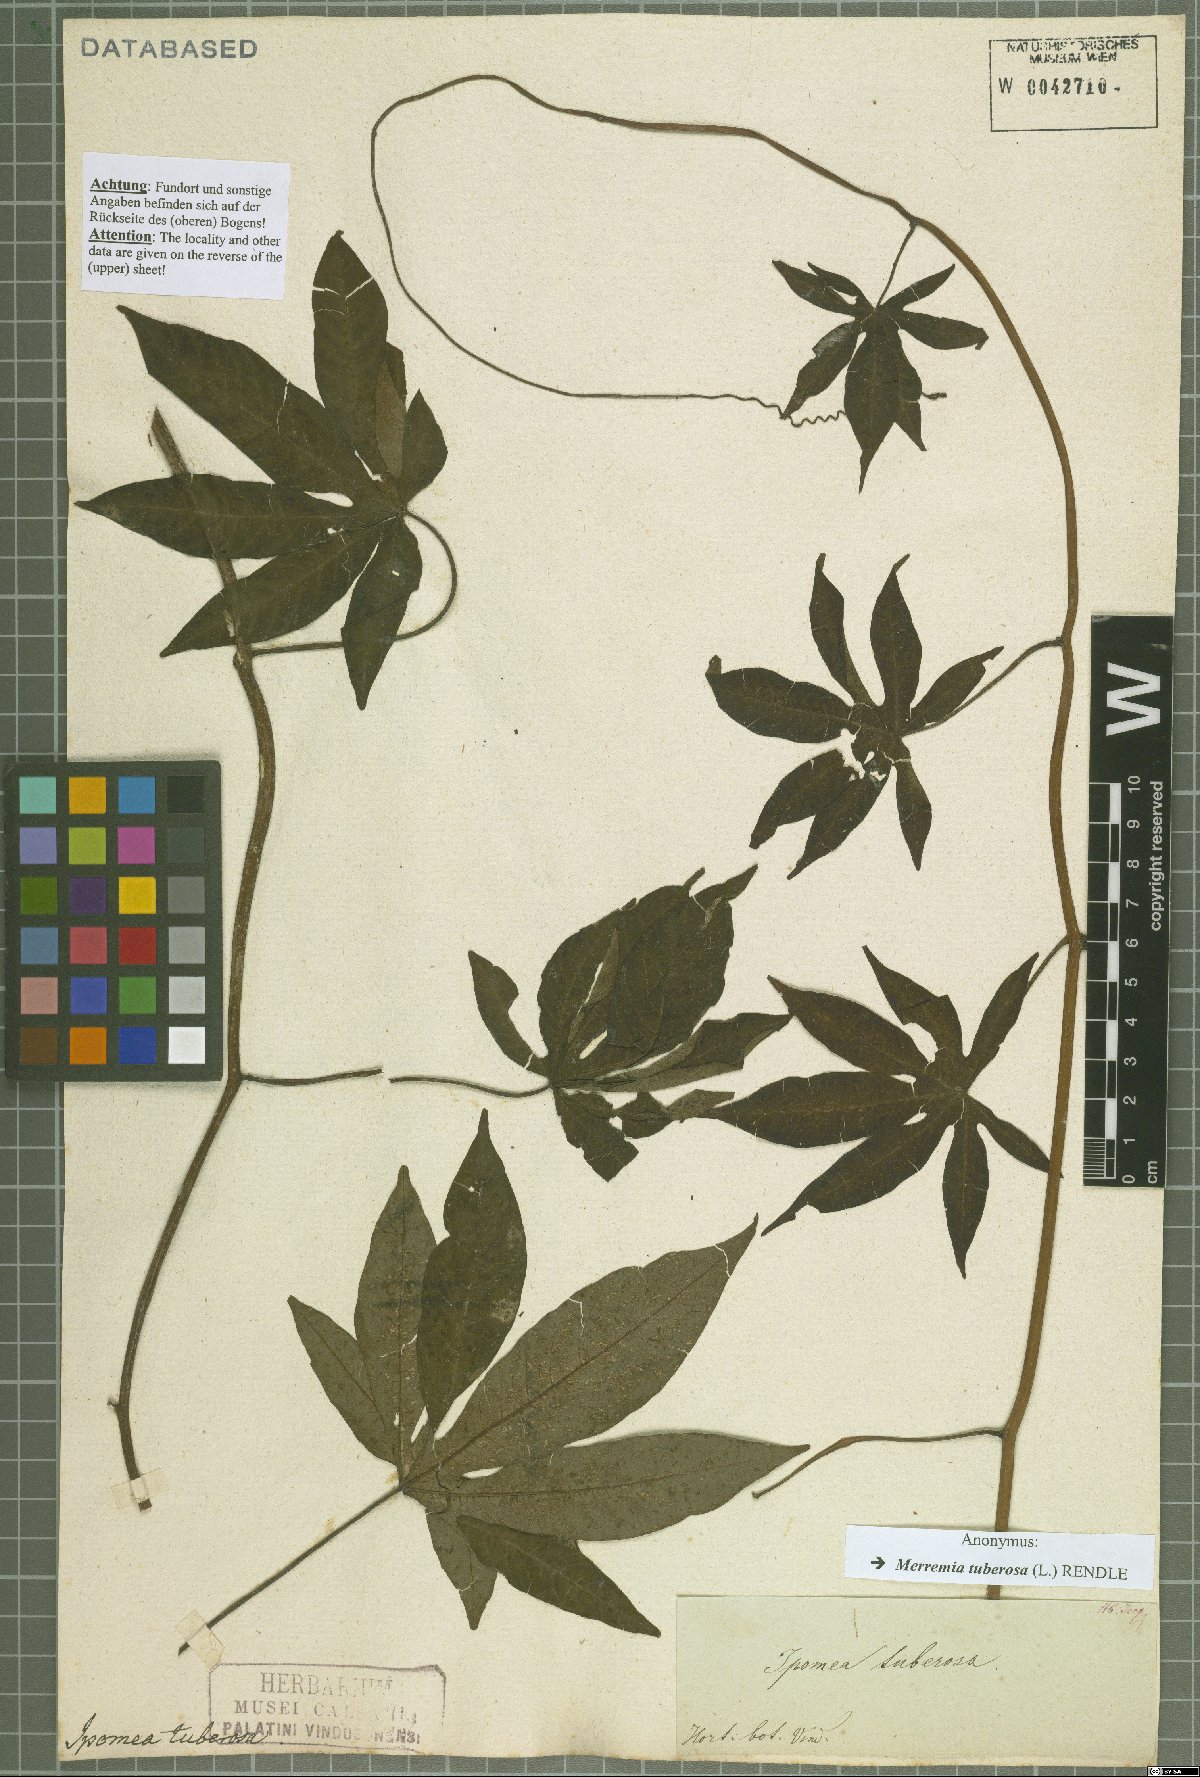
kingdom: Plantae
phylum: Tracheophyta
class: Magnoliopsida
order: Solanales
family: Convolvulaceae
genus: Distimake
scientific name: Distimake tuberosus
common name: Spanish arborvine
